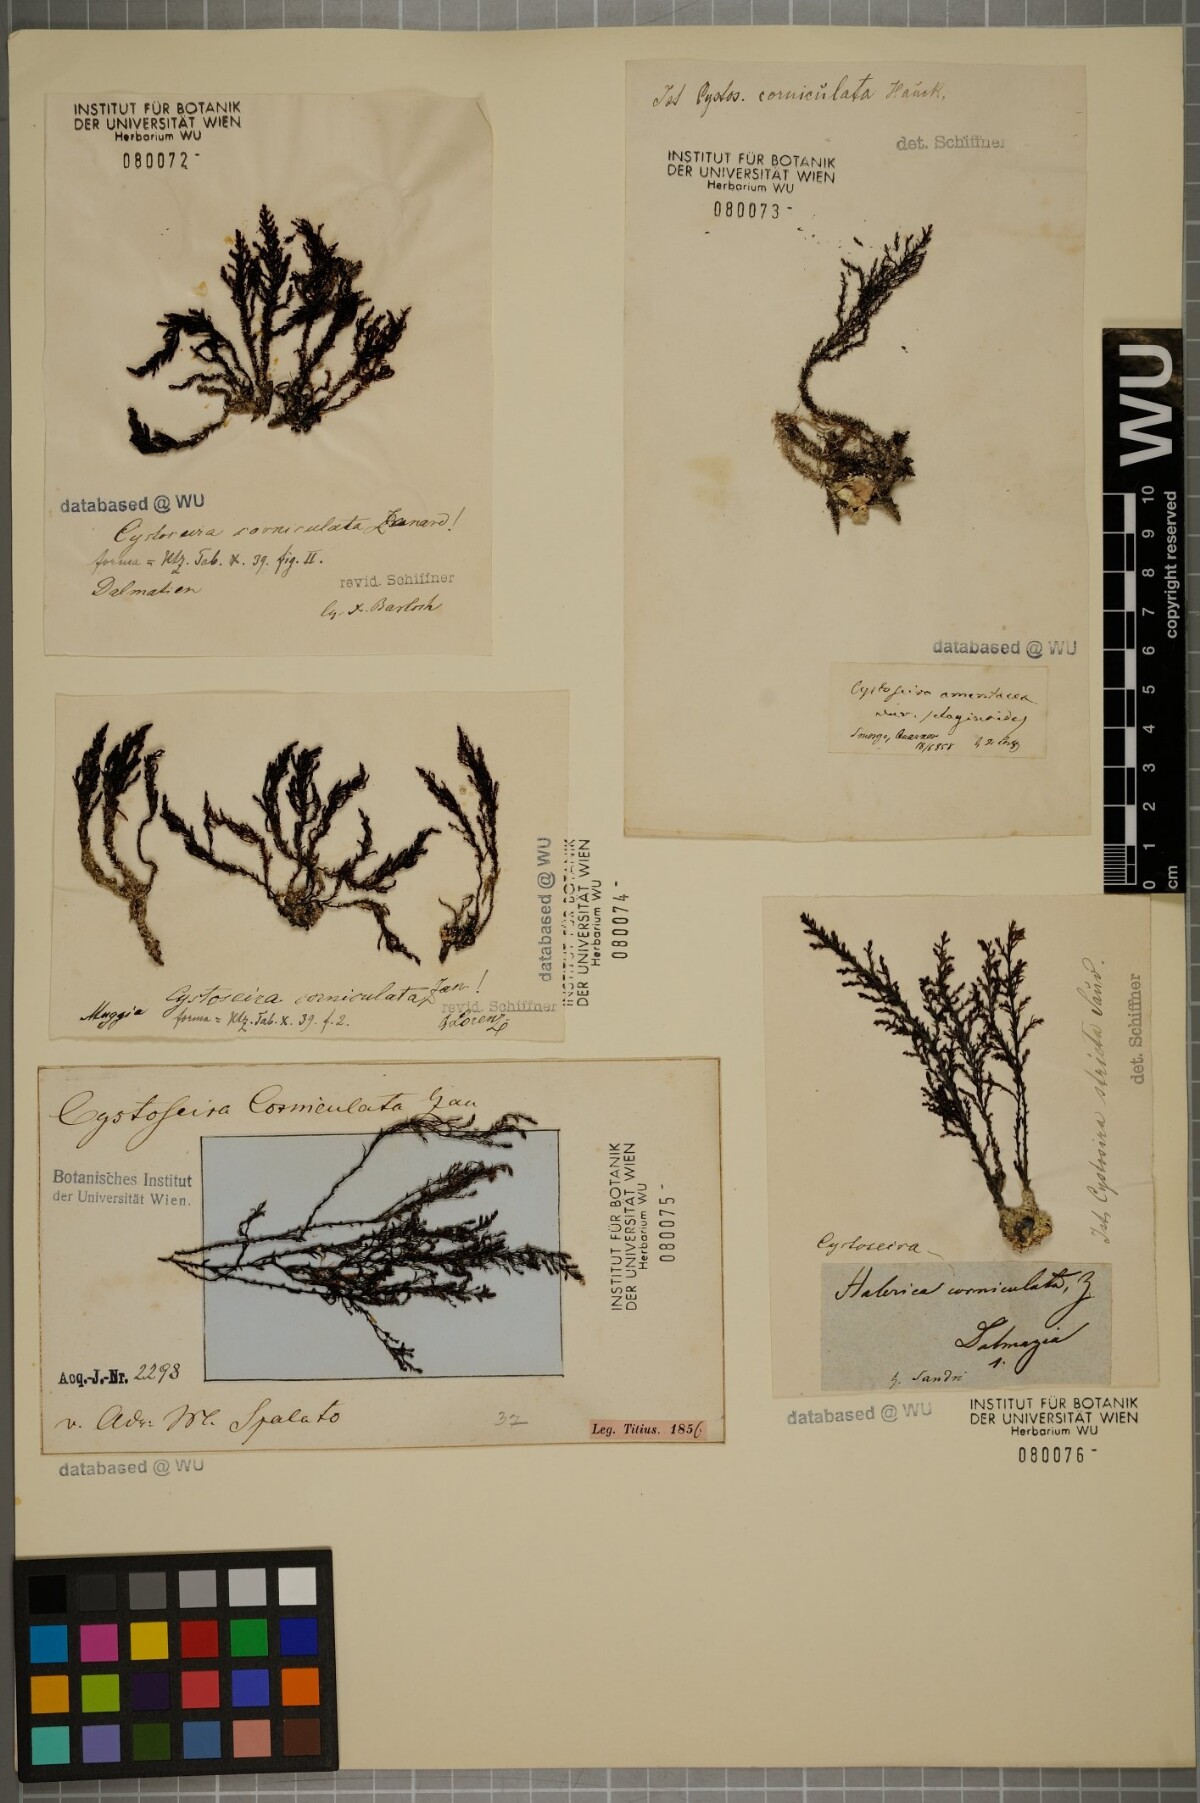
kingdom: Chromista
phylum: Ochrophyta
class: Phaeophyceae
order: Fucales
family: Sargassaceae
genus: Cystoseira
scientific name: Cystoseira corniculata
